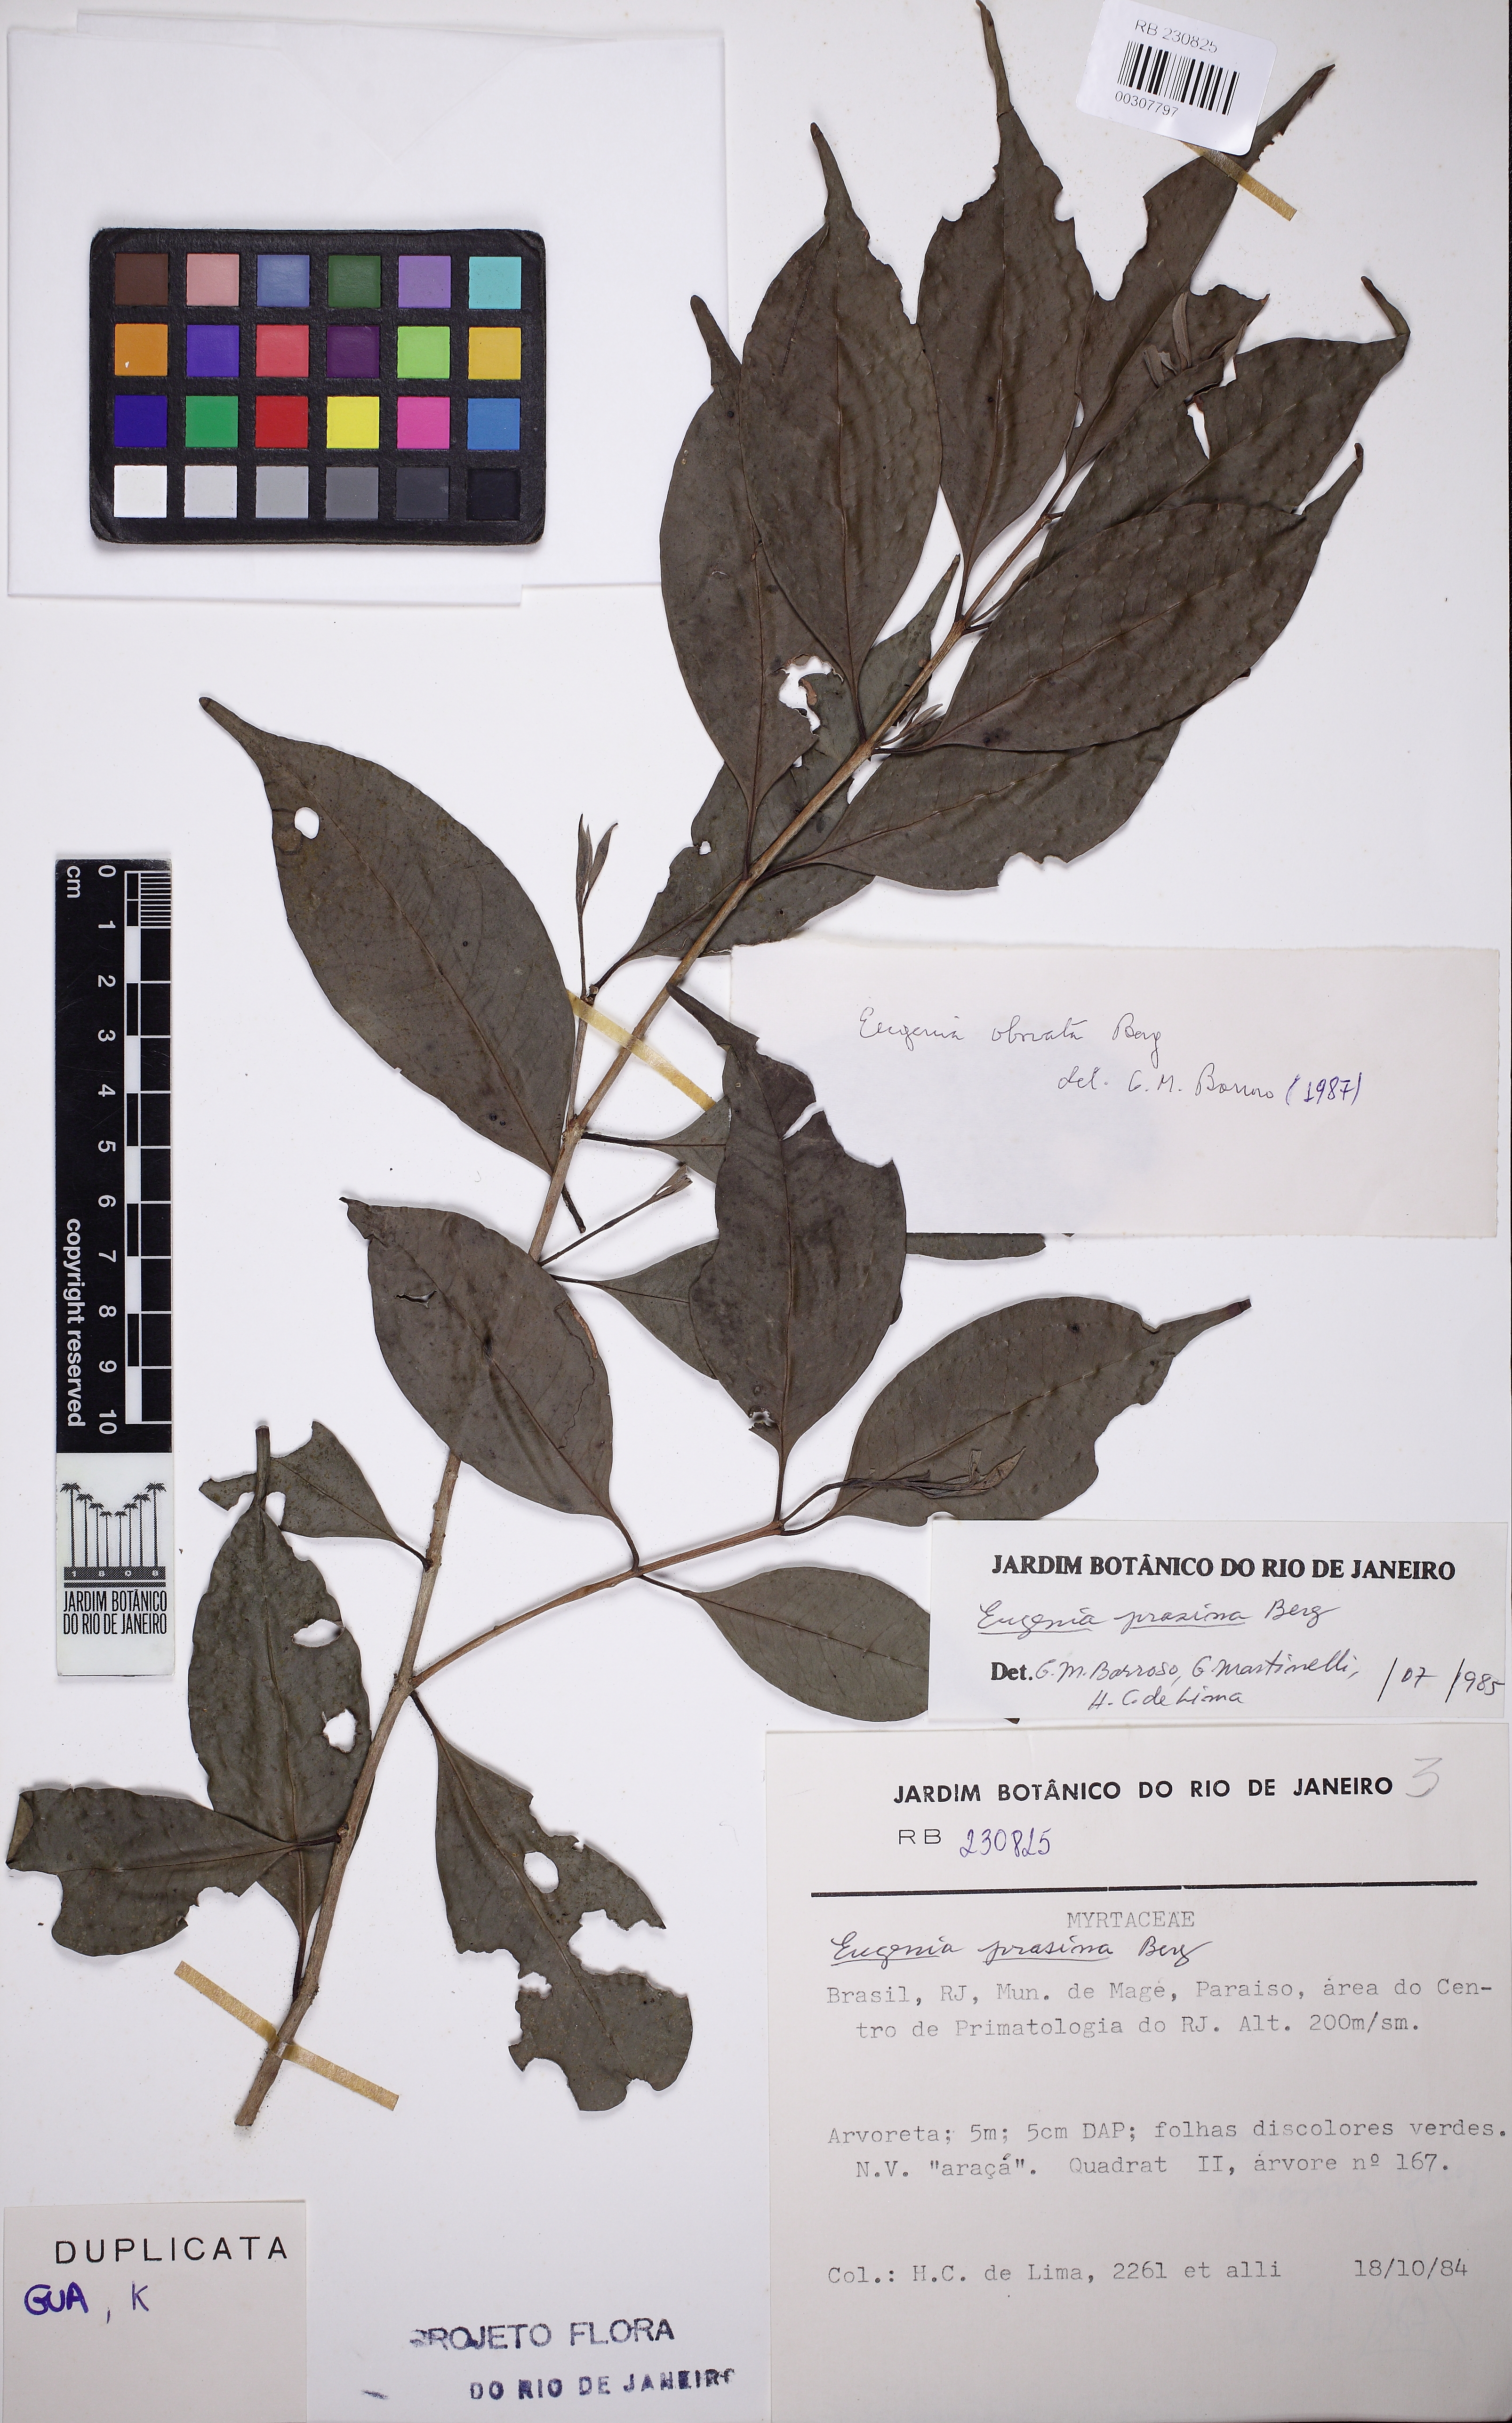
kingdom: Plantae
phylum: Tracheophyta
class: Magnoliopsida
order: Myrtales
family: Myrtaceae
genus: Eugenia
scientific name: Eugenia excelsa
